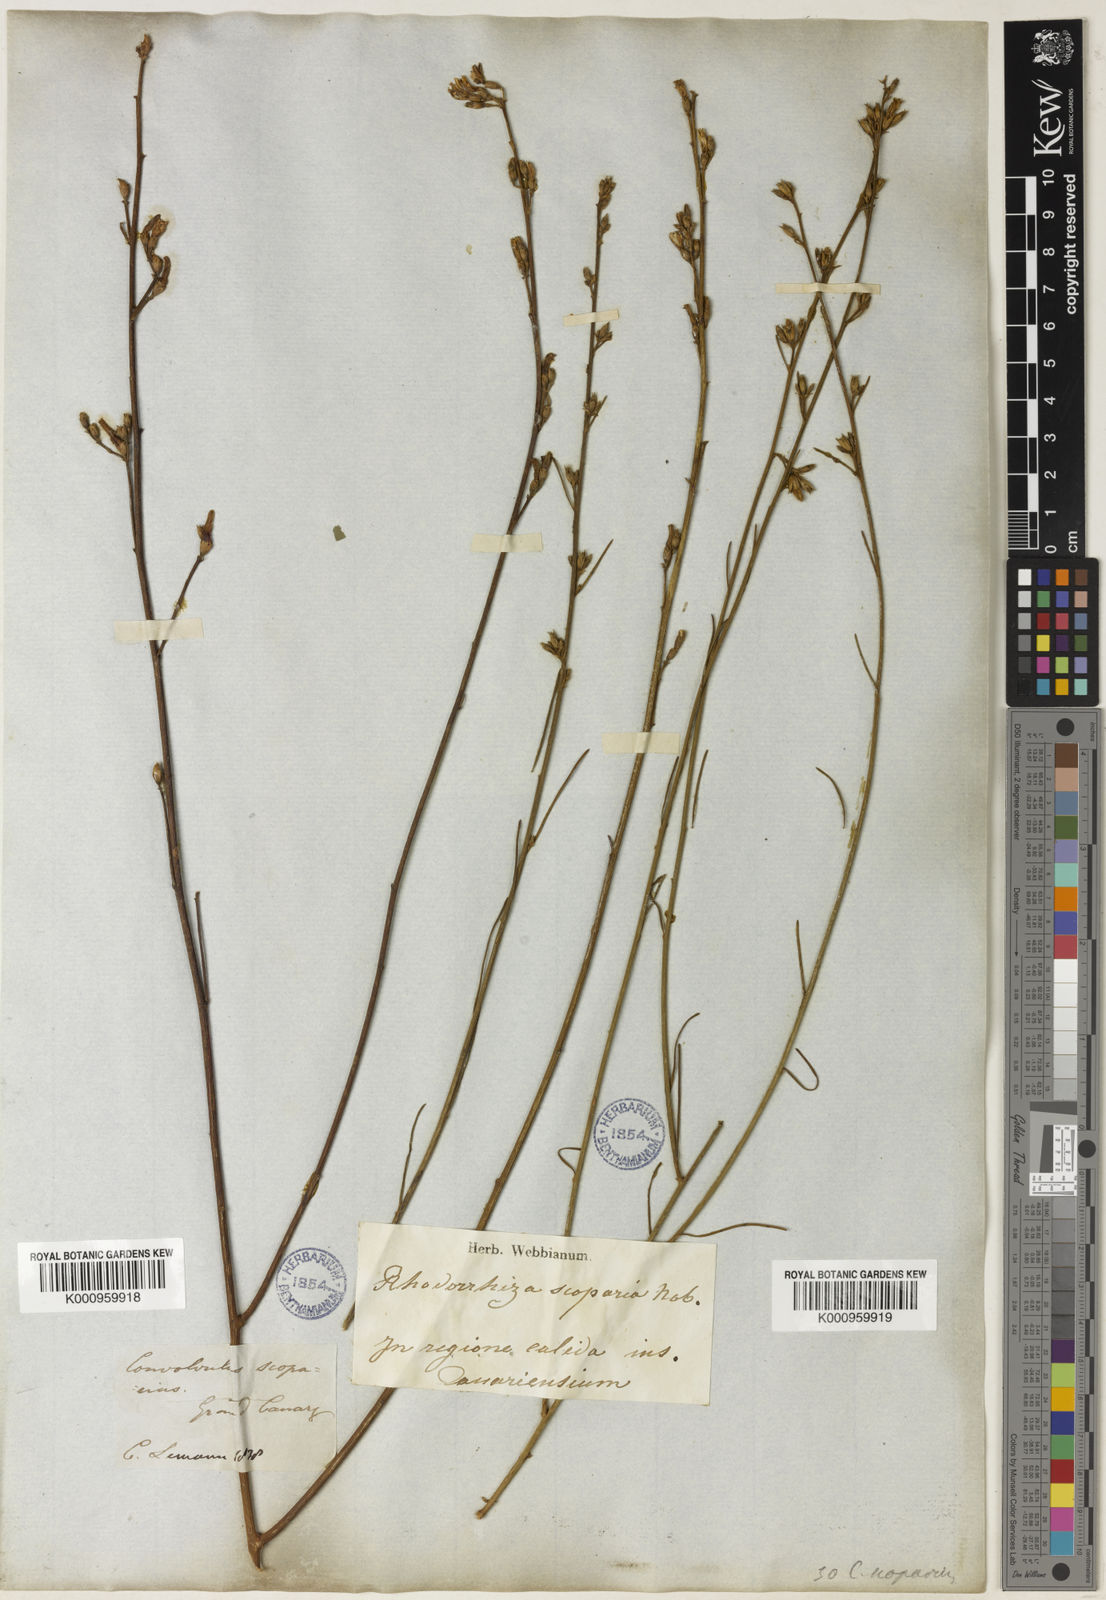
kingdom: Plantae
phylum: Tracheophyta
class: Magnoliopsida
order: Solanales
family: Convolvulaceae
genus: Convolvulus
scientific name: Convolvulus scoparius
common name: Lignum rhodium
